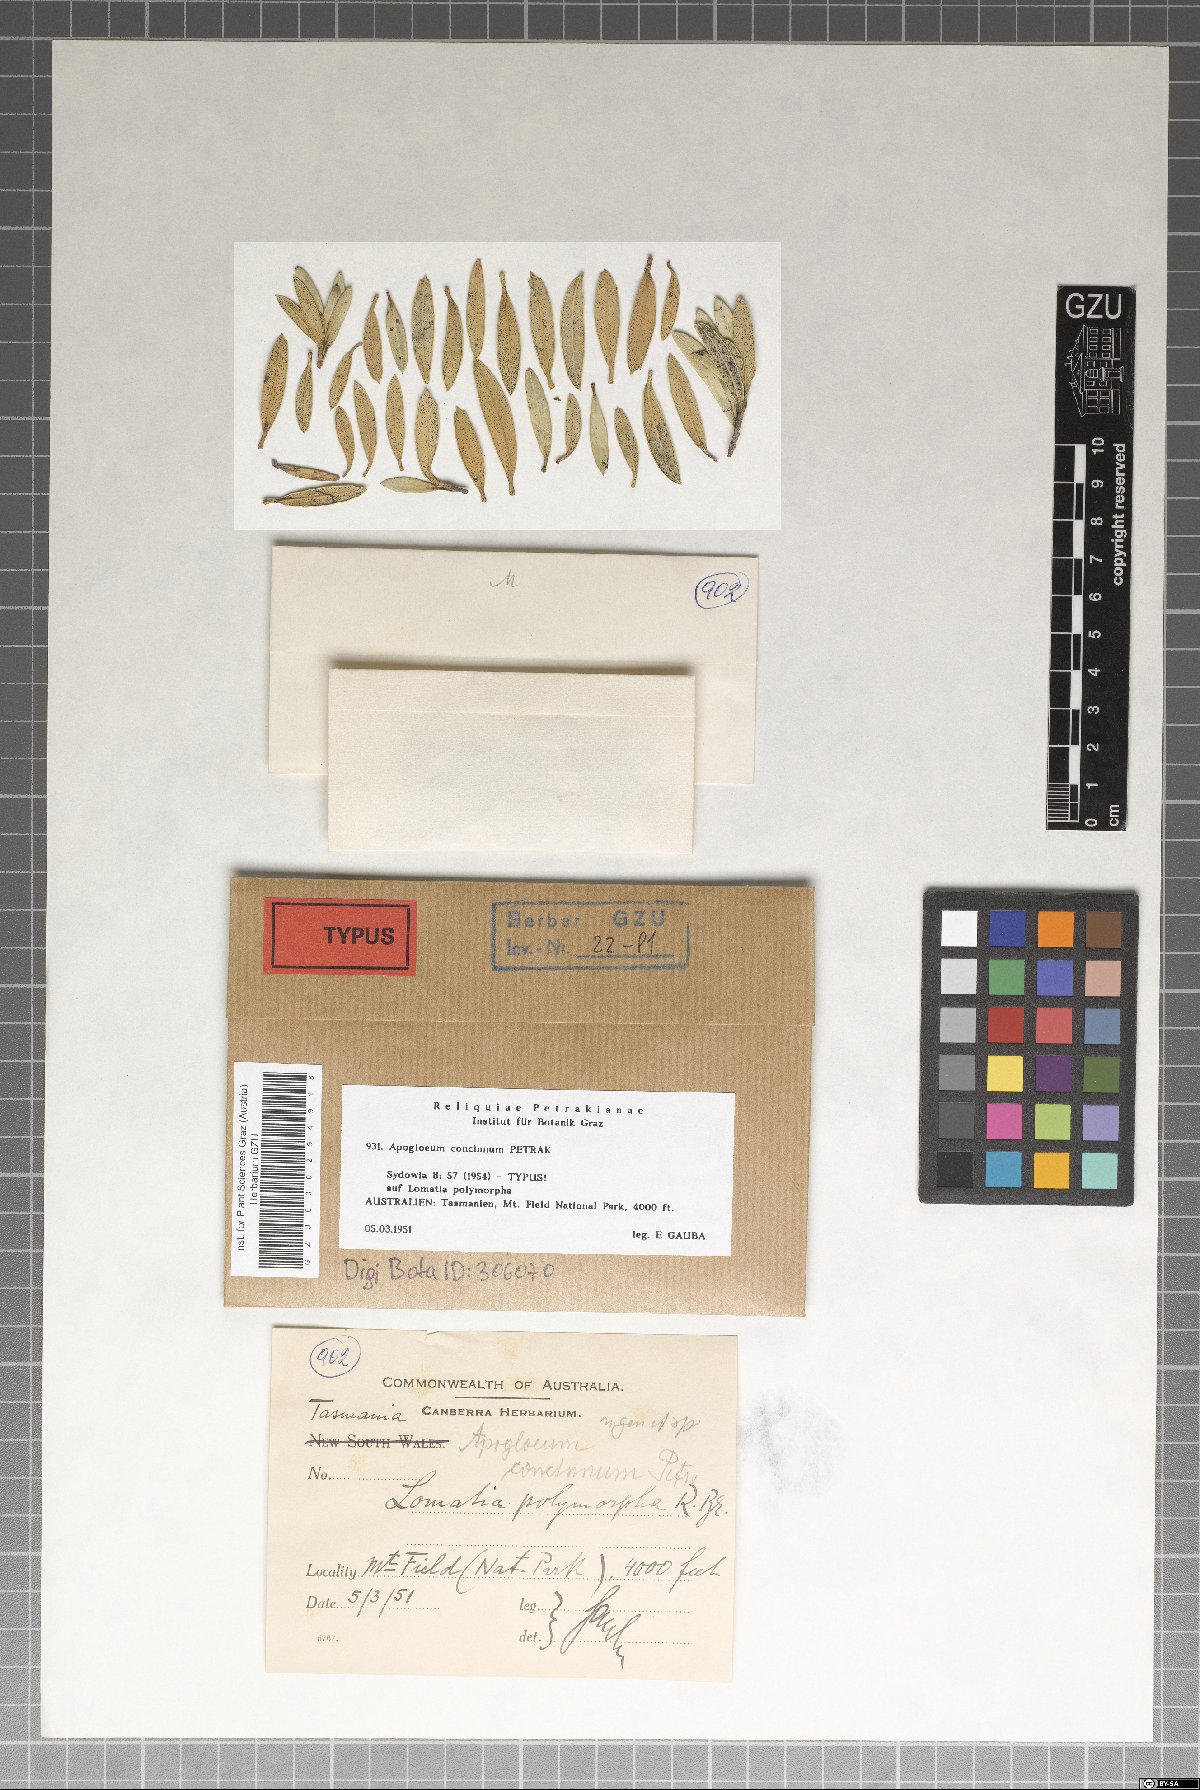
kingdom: Fungi
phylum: Ascomycota
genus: Apogloeum
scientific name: Apogloeum concinnum
